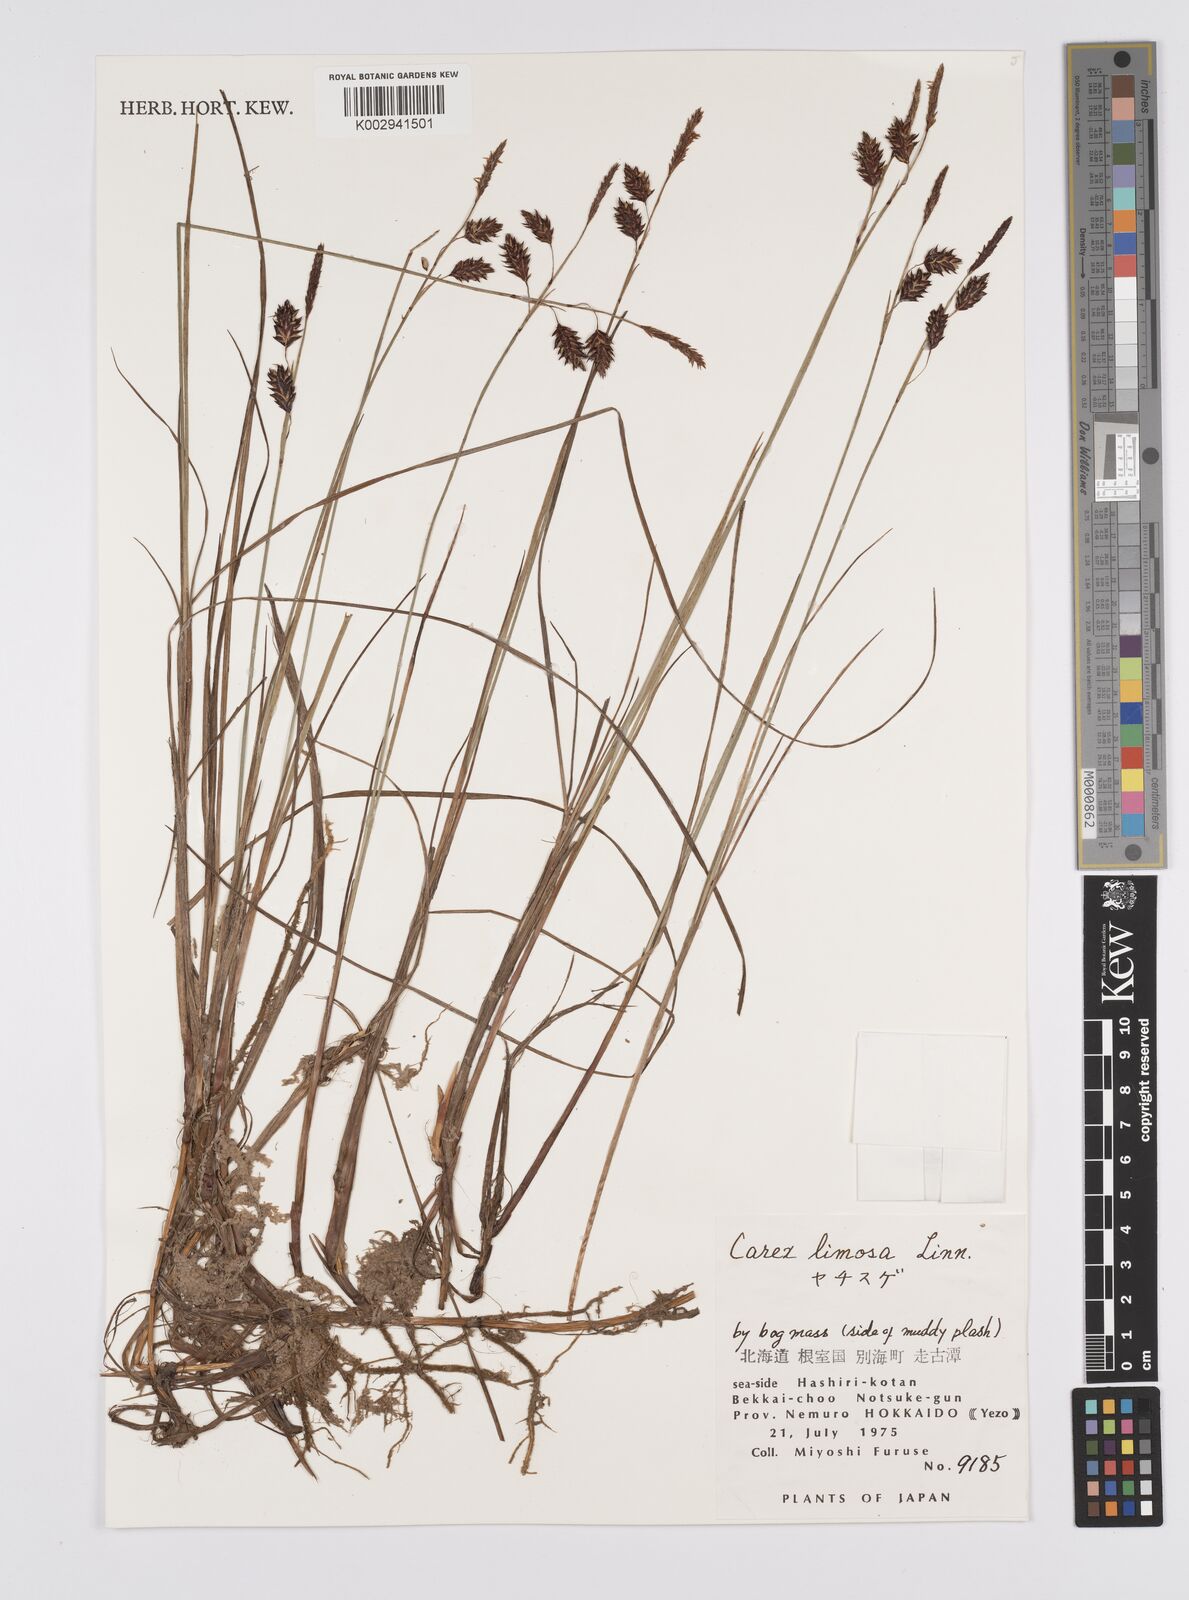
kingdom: Plantae
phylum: Tracheophyta
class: Liliopsida
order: Poales
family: Cyperaceae
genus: Carex
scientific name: Carex limosa
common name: Bog sedge
